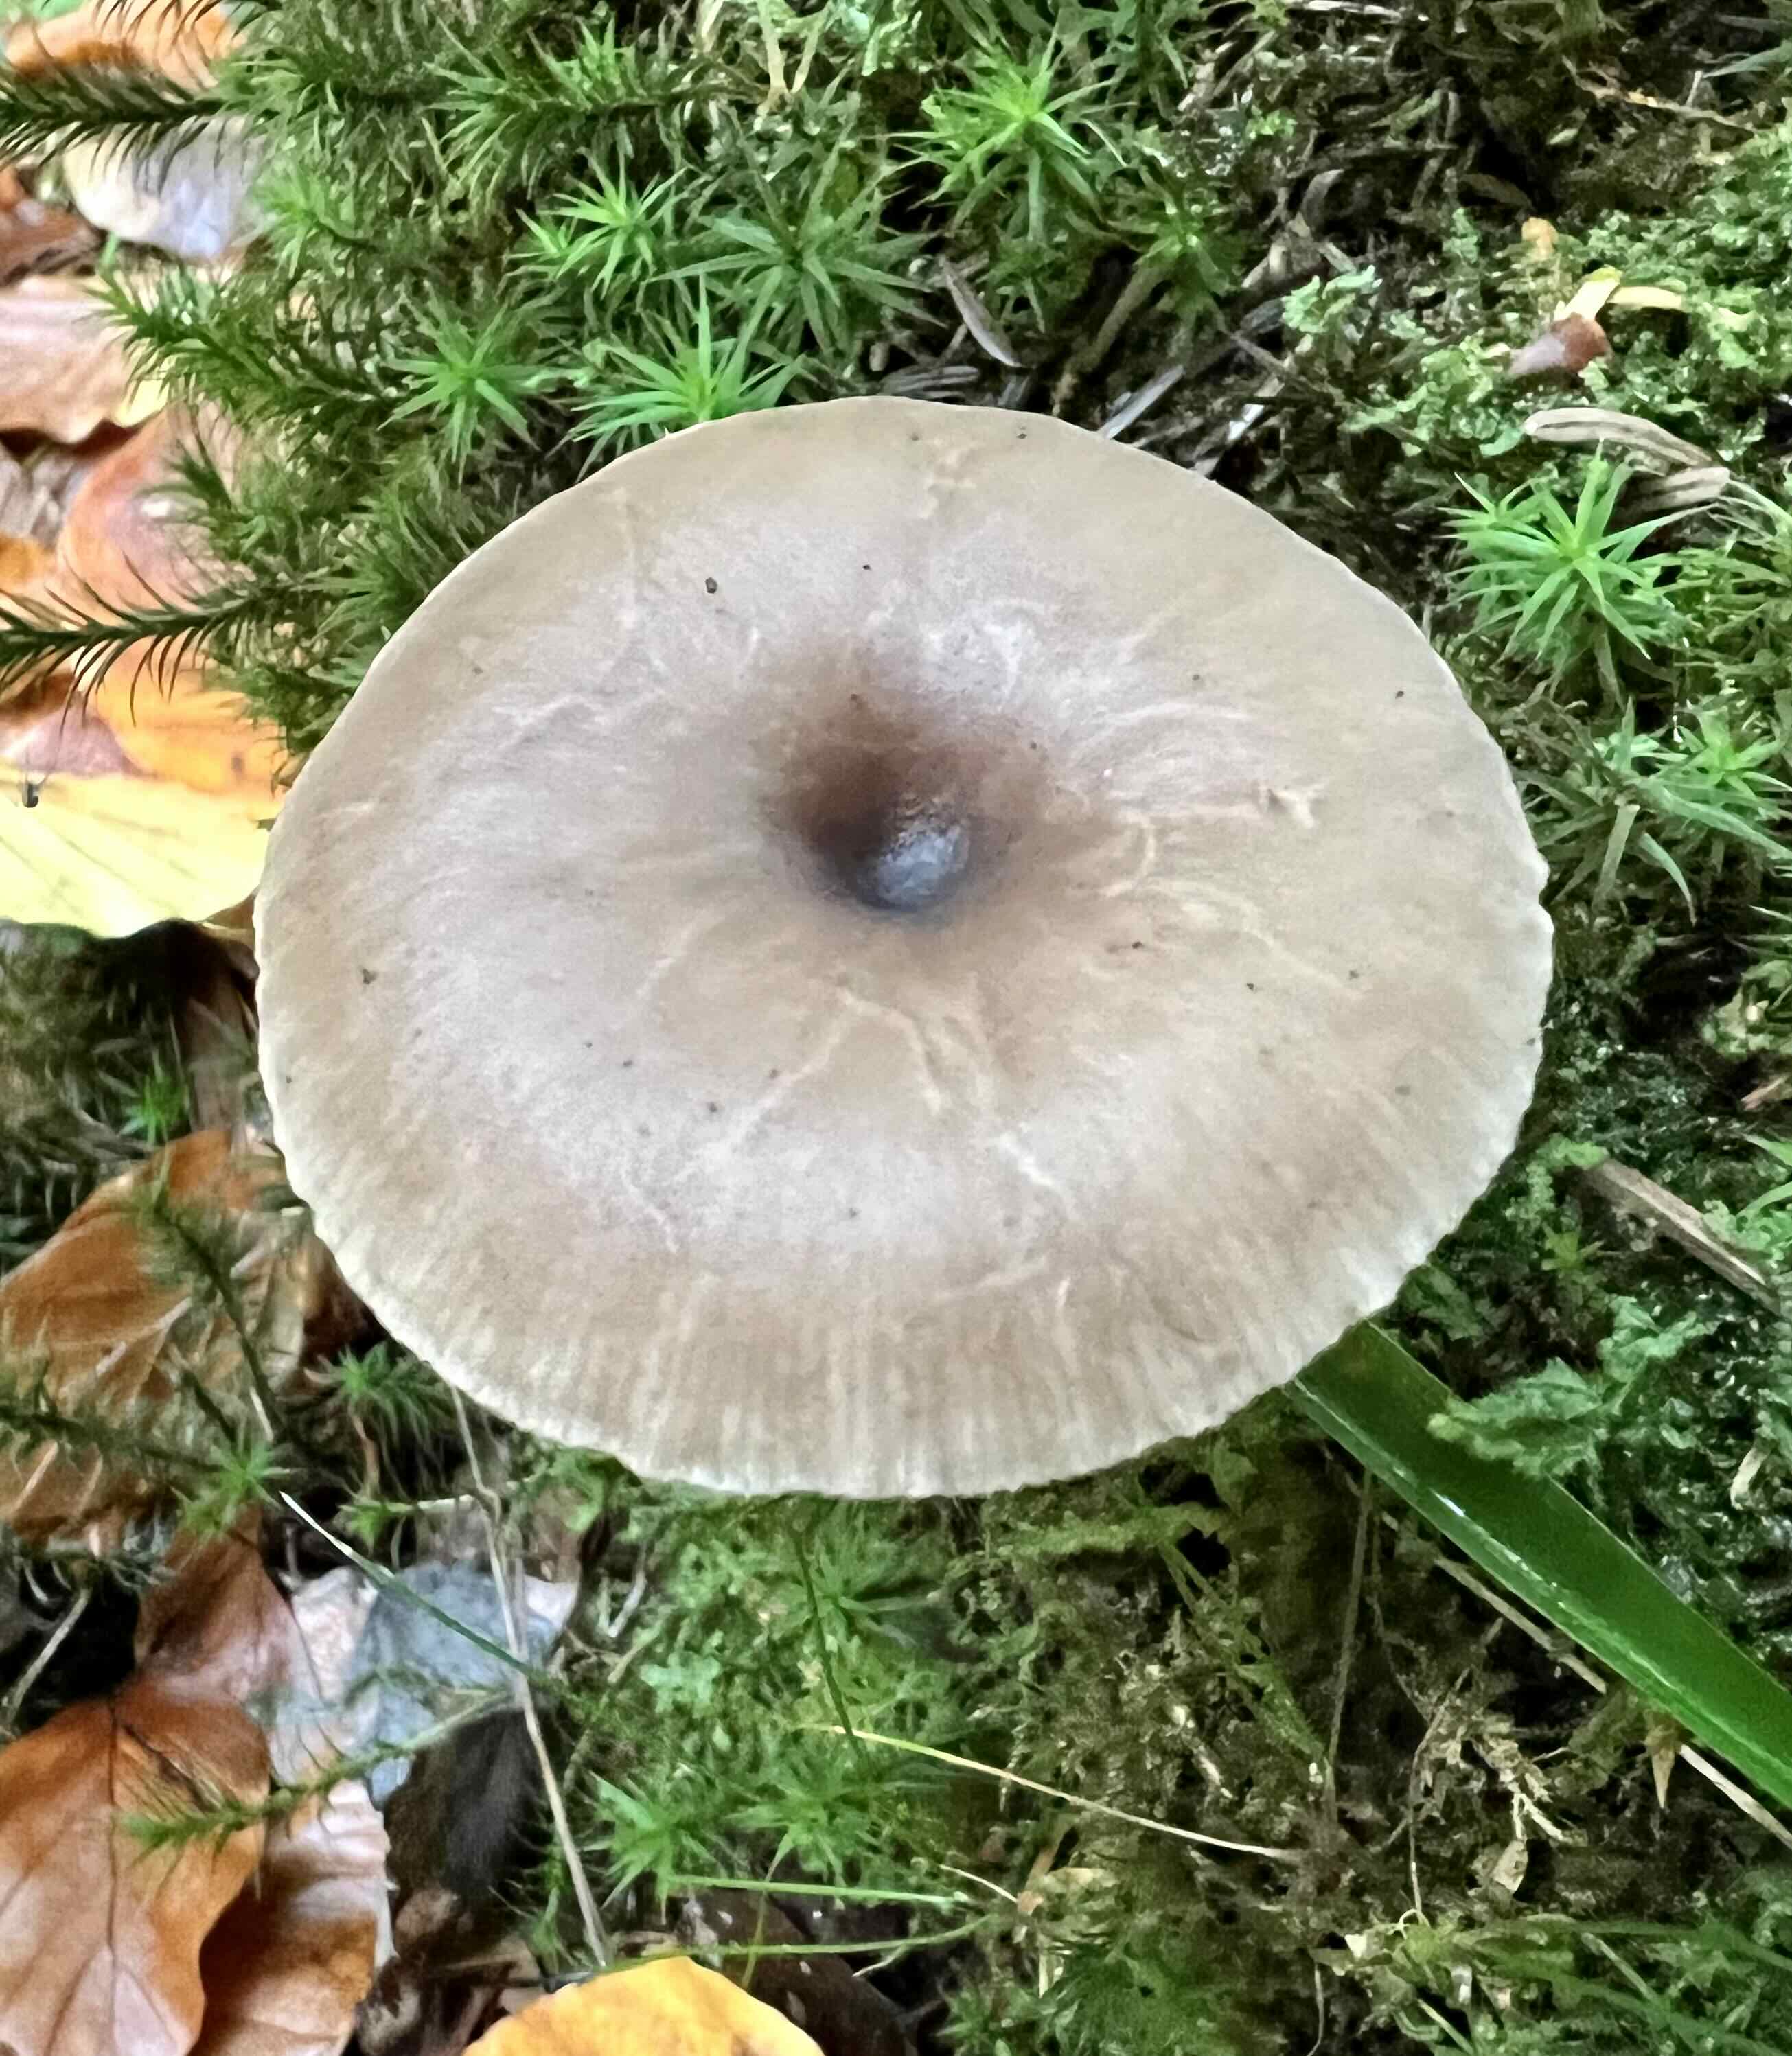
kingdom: Fungi
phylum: Basidiomycota
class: Agaricomycetes
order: Agaricales
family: Pseudoclitocybaceae
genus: Pseudoclitocybe
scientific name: Pseudoclitocybe cyathiformis
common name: almindelig bægertragthat
